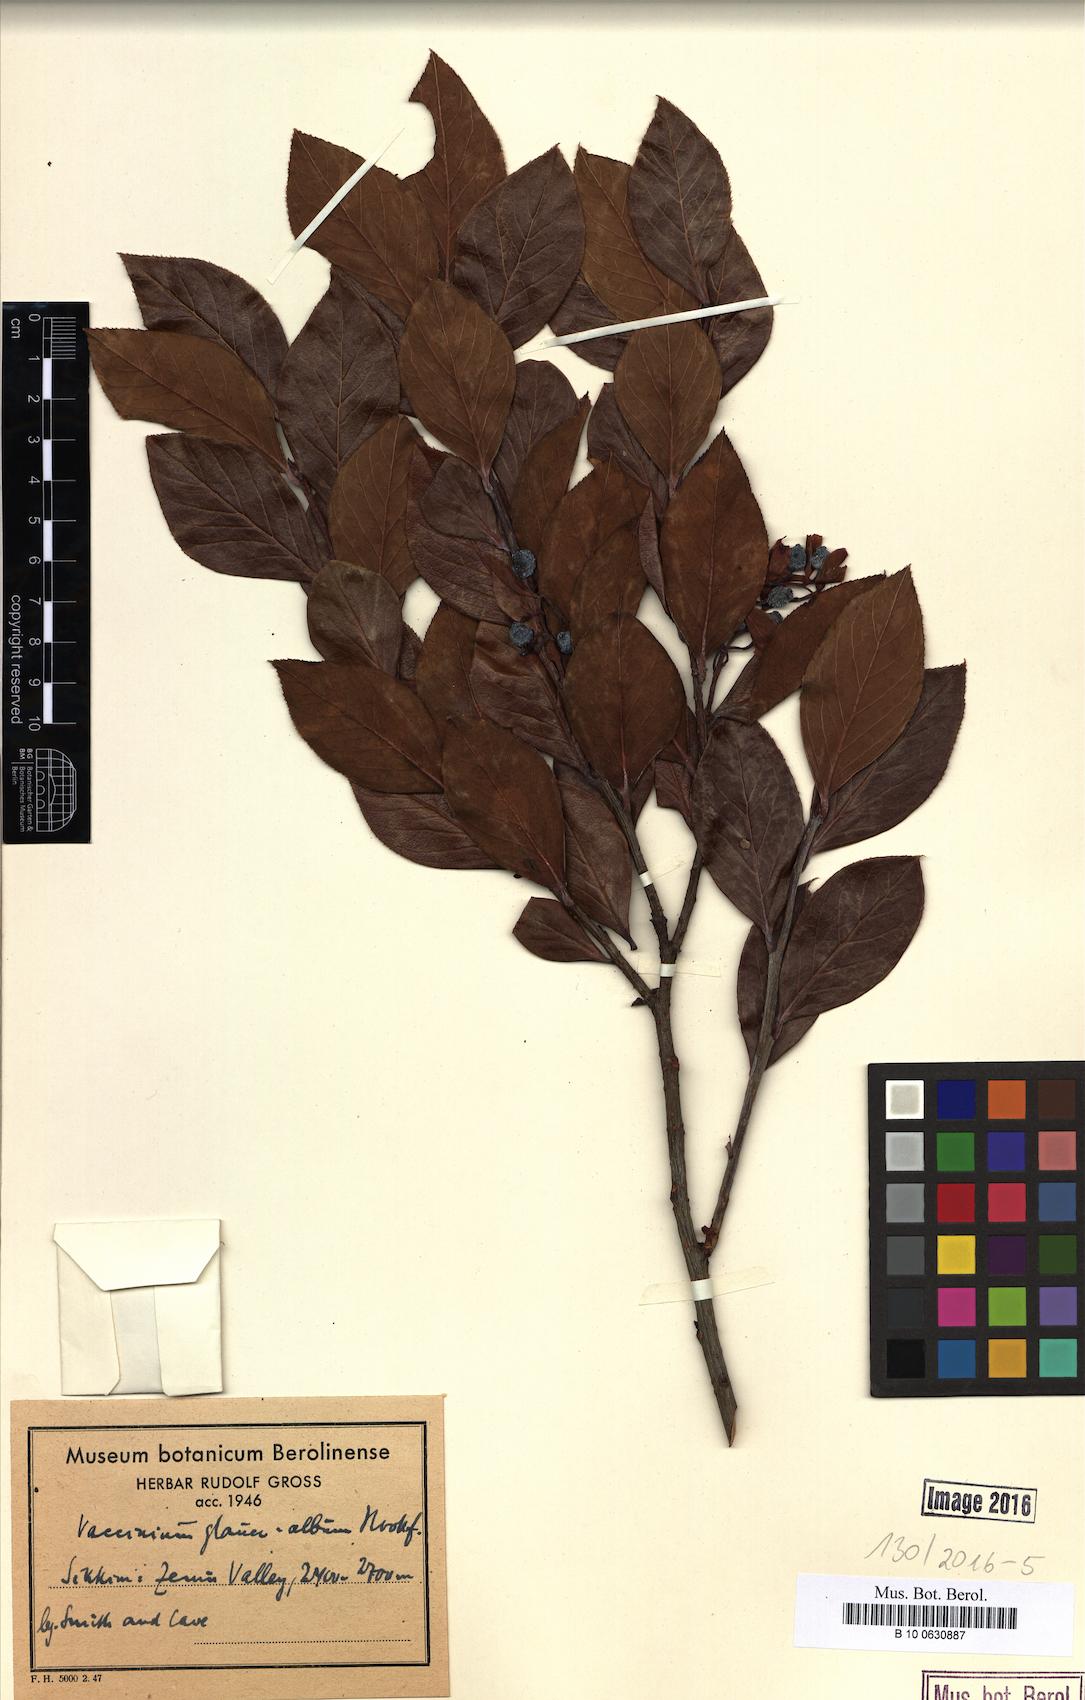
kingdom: Plantae
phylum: Tracheophyta
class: Magnoliopsida
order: Ericales
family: Ericaceae
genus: Vaccinium
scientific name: Vaccinium glaucoalbum
